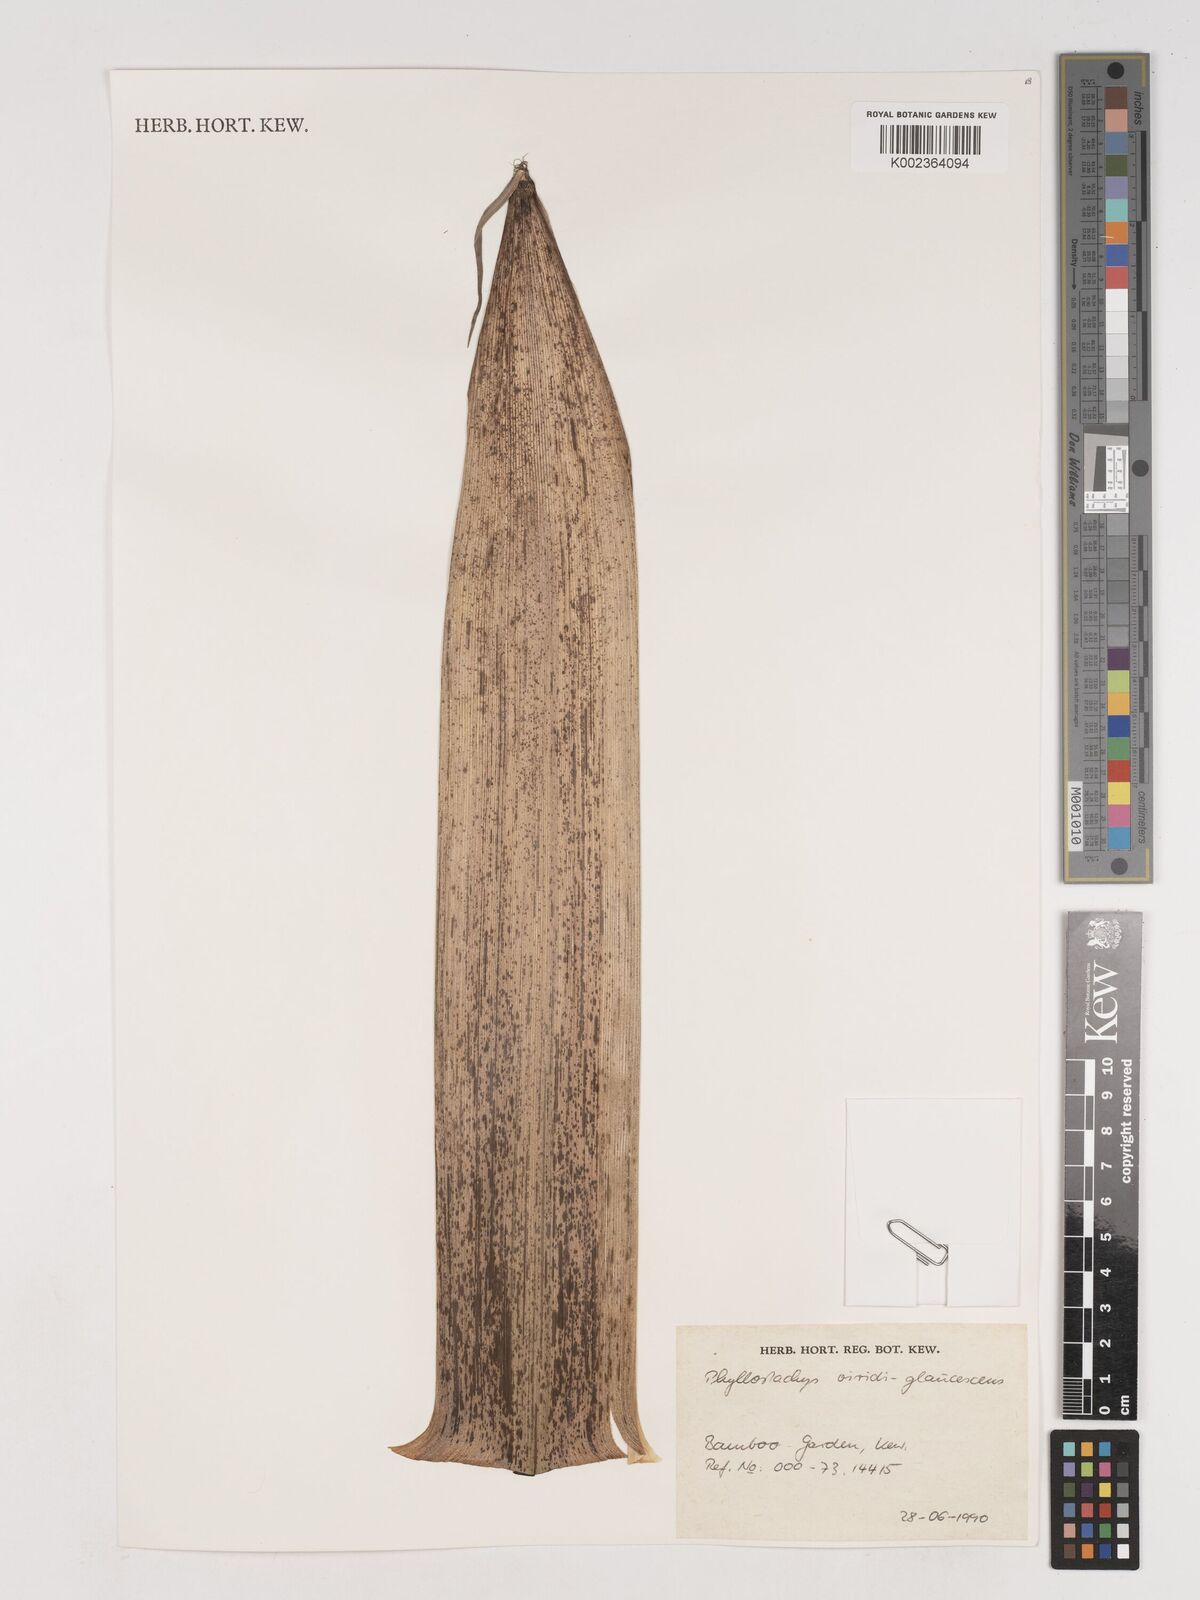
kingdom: Plantae
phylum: Tracheophyta
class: Liliopsida
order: Poales
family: Poaceae
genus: Phyllostachys
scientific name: Phyllostachys viridiglaucescens
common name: Greenwax golden bamboo
